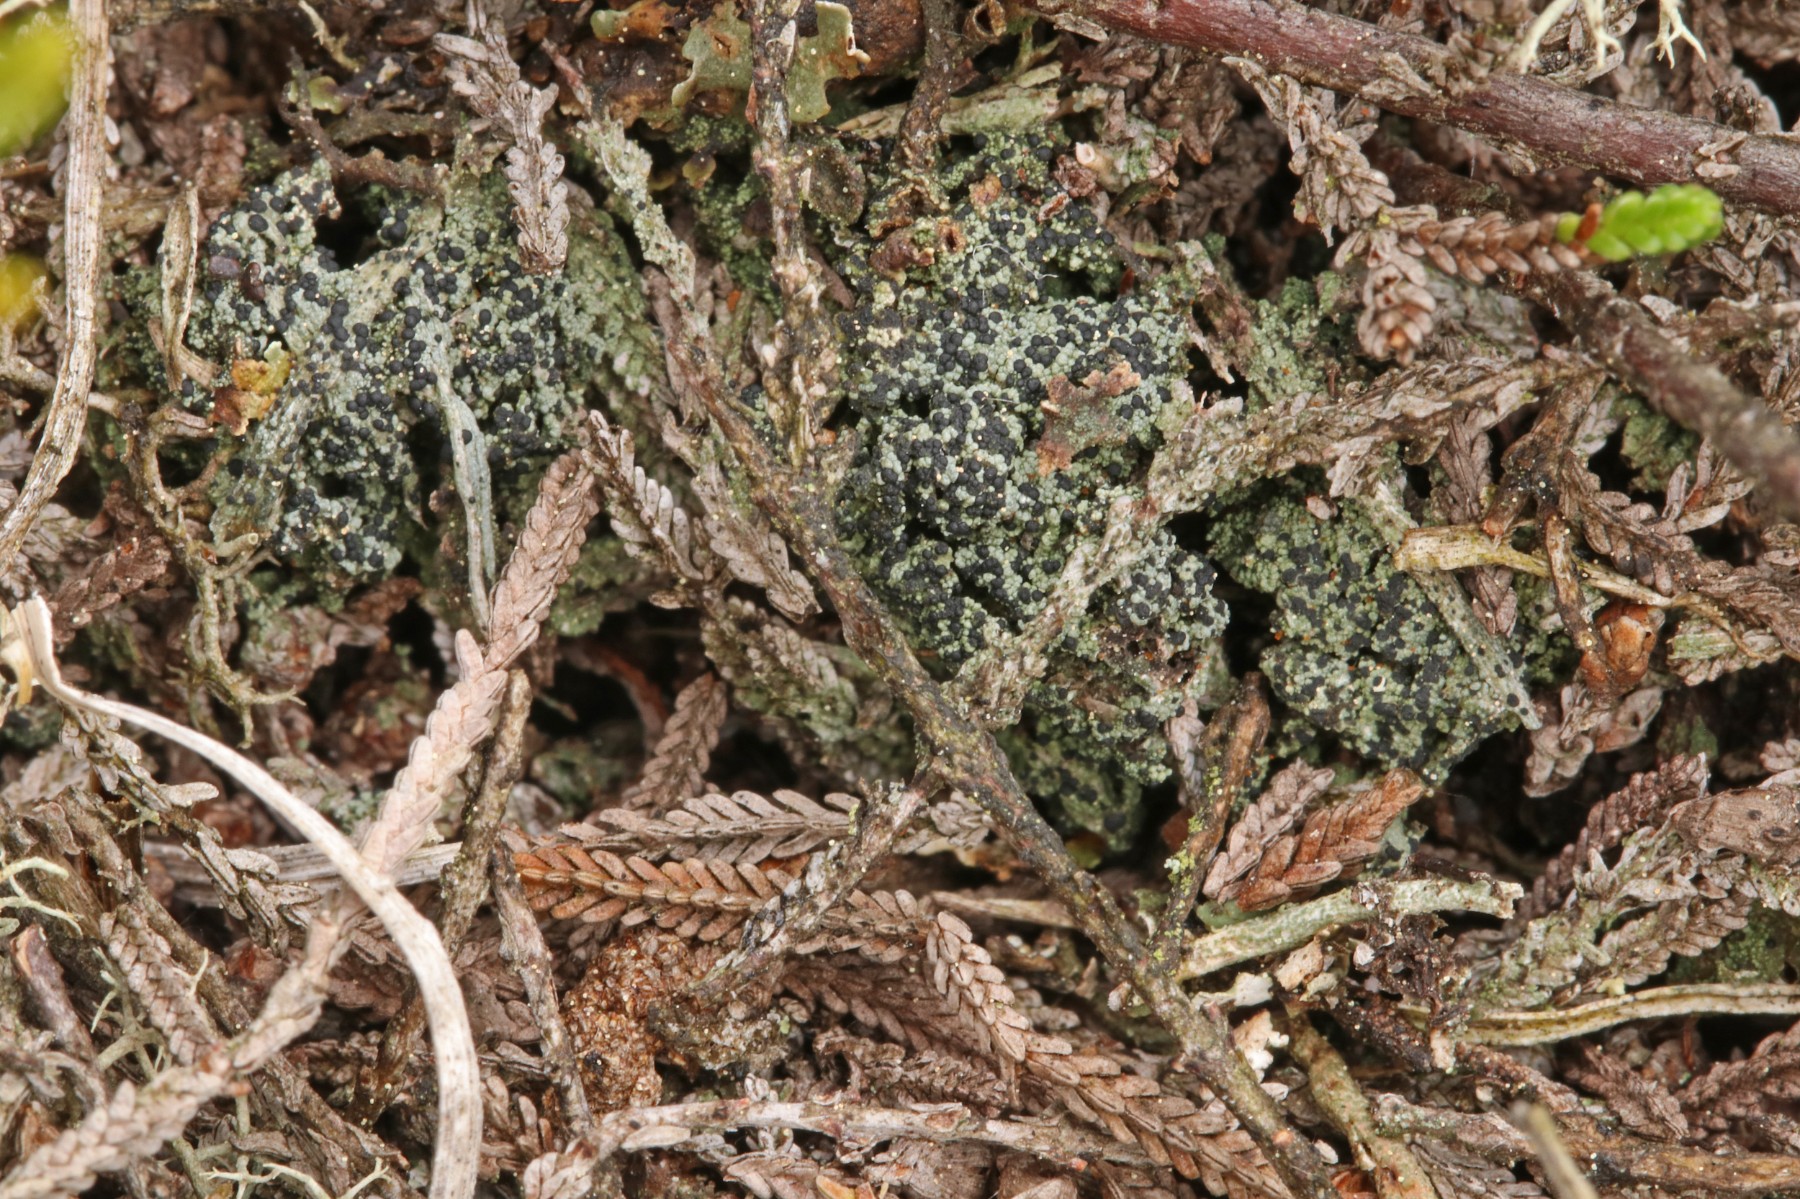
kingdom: Fungi
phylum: Ascomycota
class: Lecanoromycetes
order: Lecanorales
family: Byssolomataceae
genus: Micarea
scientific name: Micarea lignaria
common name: tørve-knaplav
